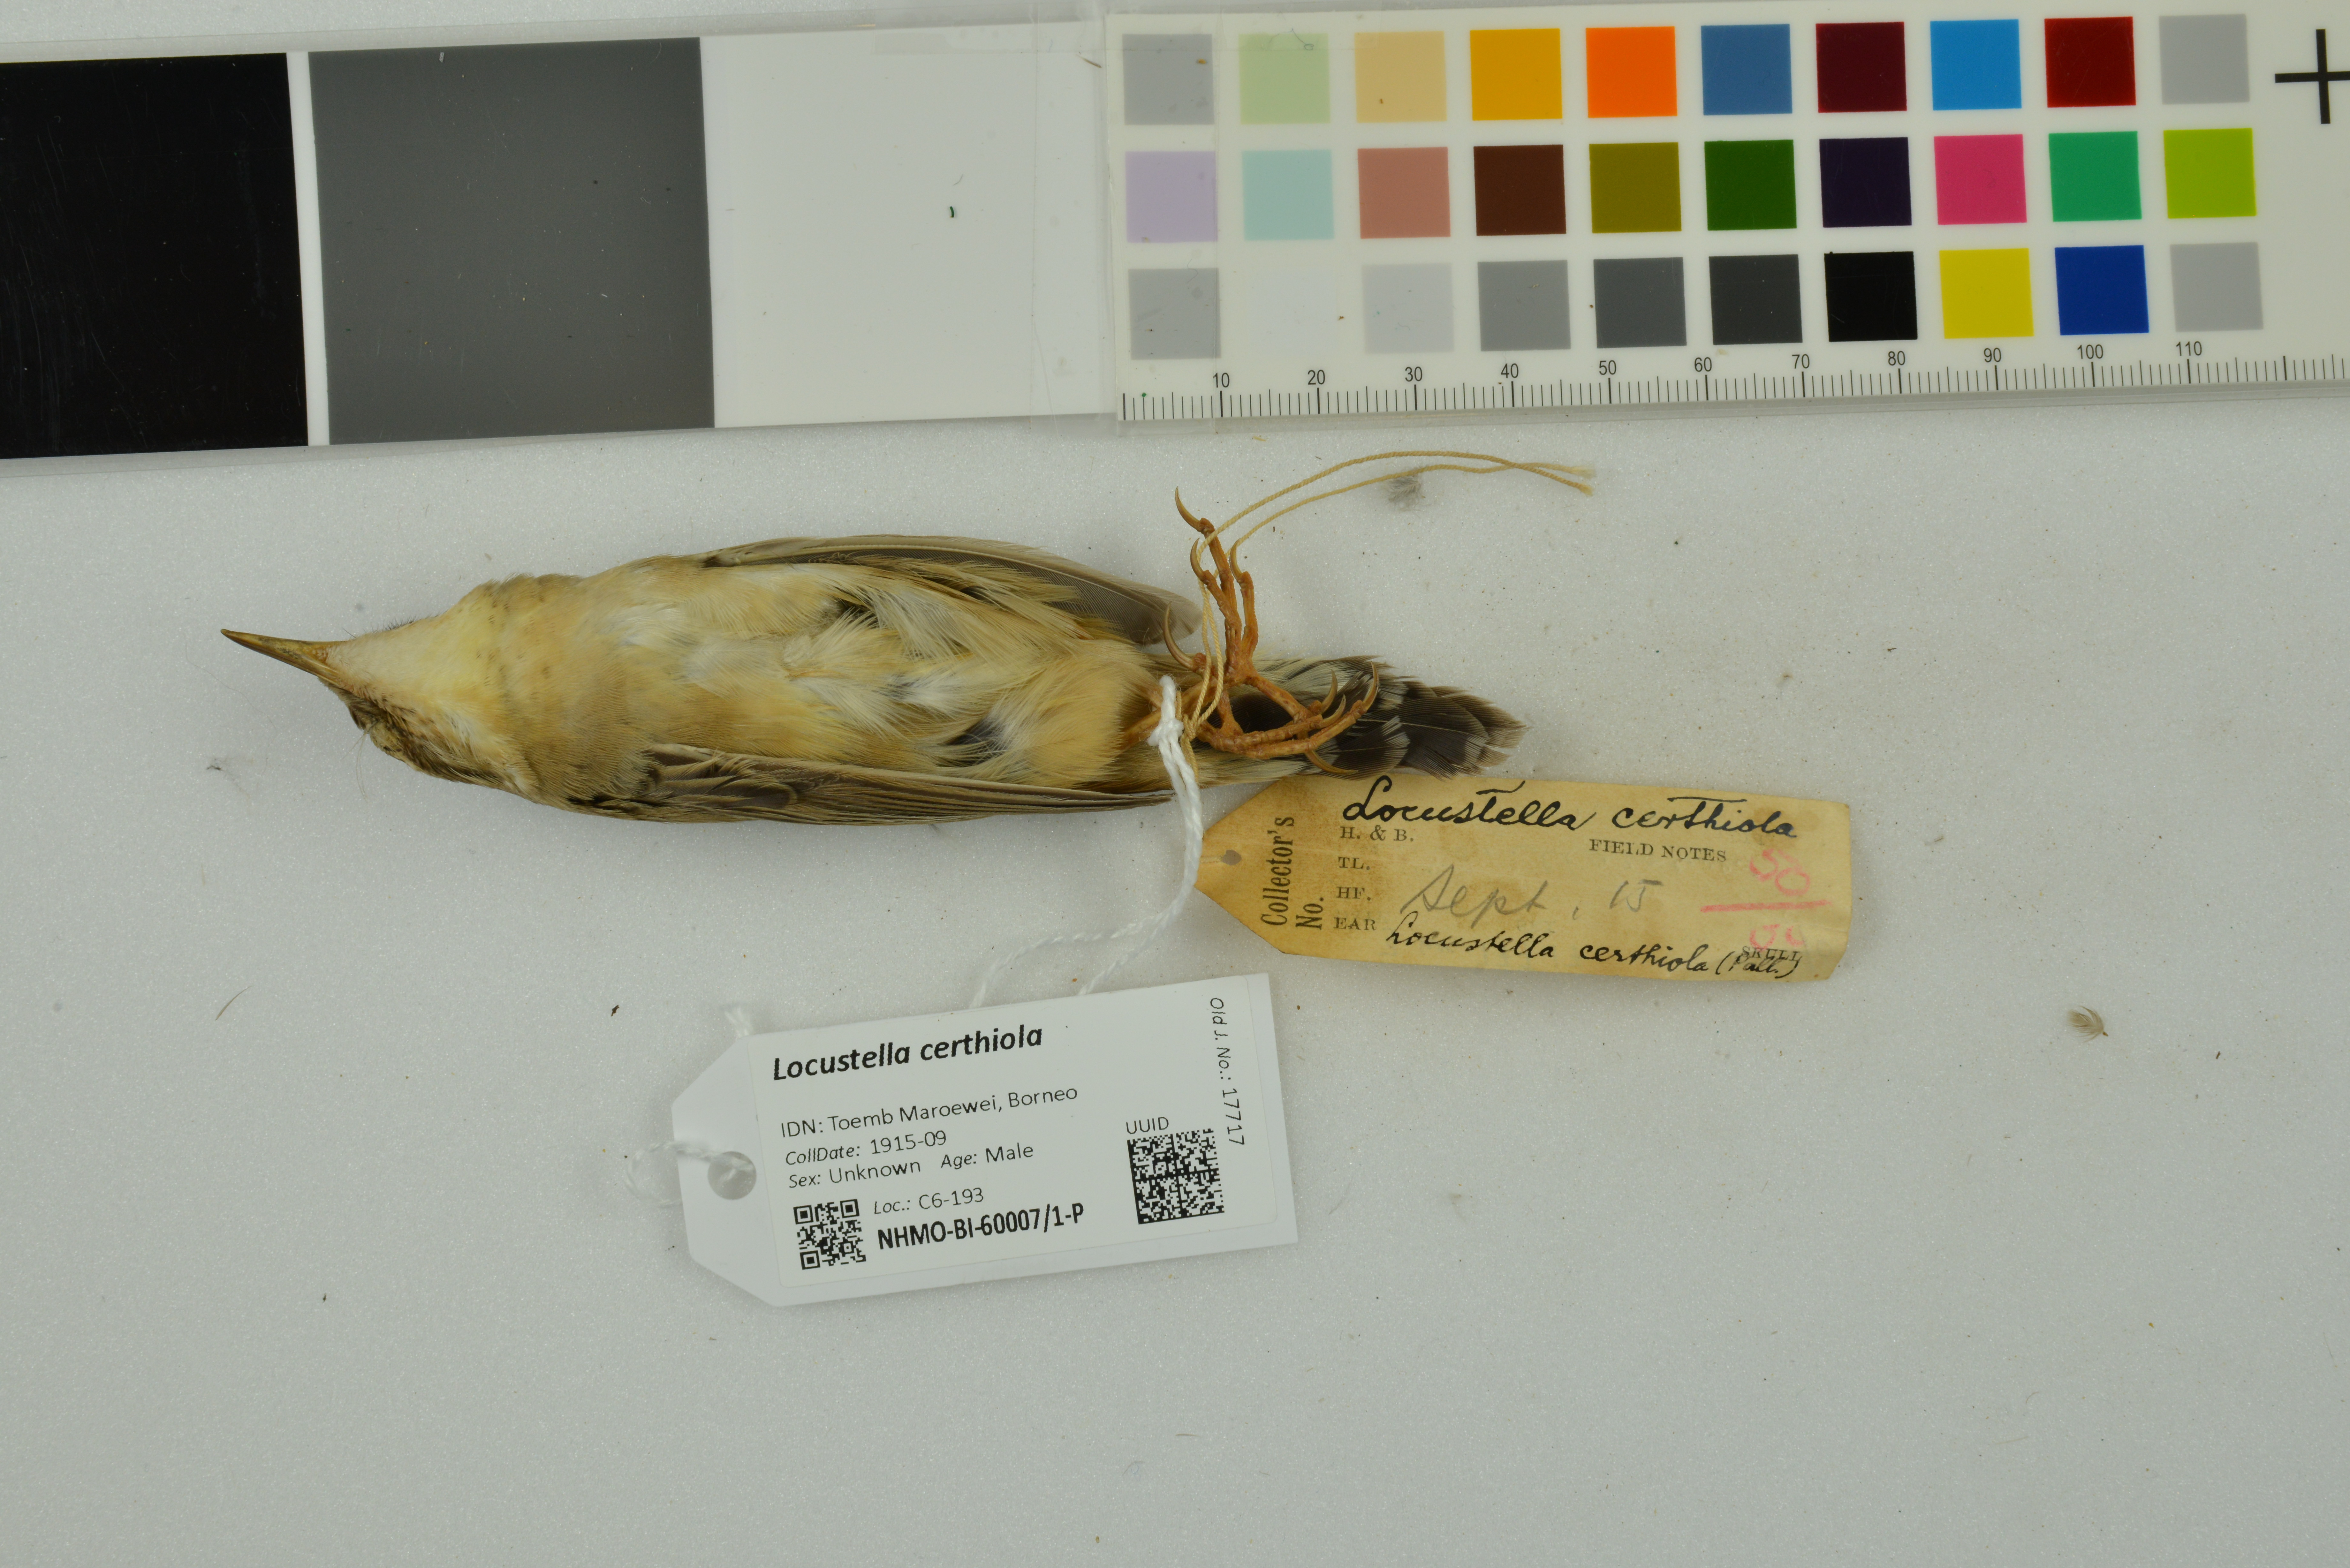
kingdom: Animalia
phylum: Chordata
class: Aves
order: Passeriformes
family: Locustellidae
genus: Locustella
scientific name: Locustella certhiola
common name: Pallas's grasshopper warbler
